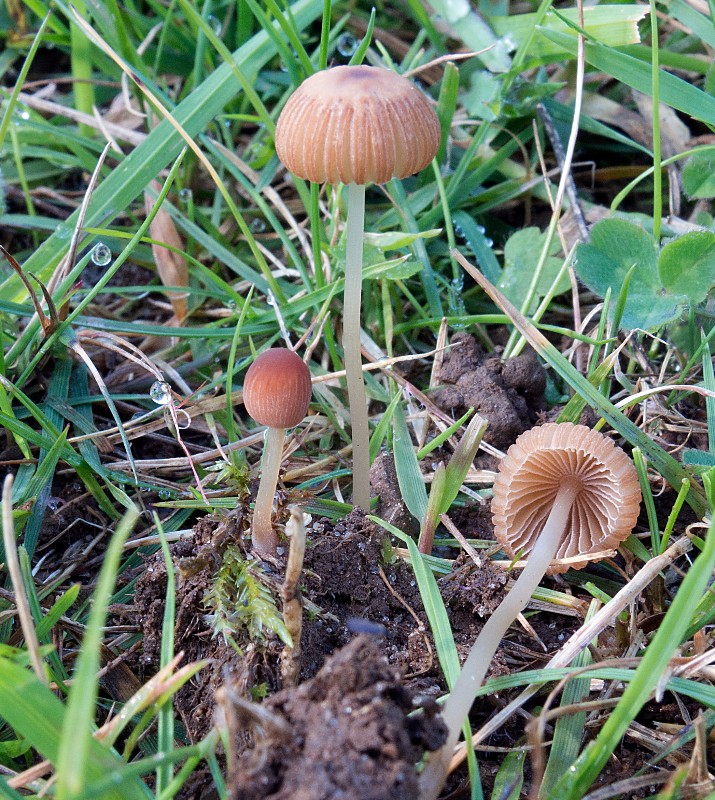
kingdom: Fungi
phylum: Basidiomycota
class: Agaricomycetes
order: Agaricales
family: Psathyrellaceae
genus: Parasola
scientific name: Parasola
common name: hjulhat
